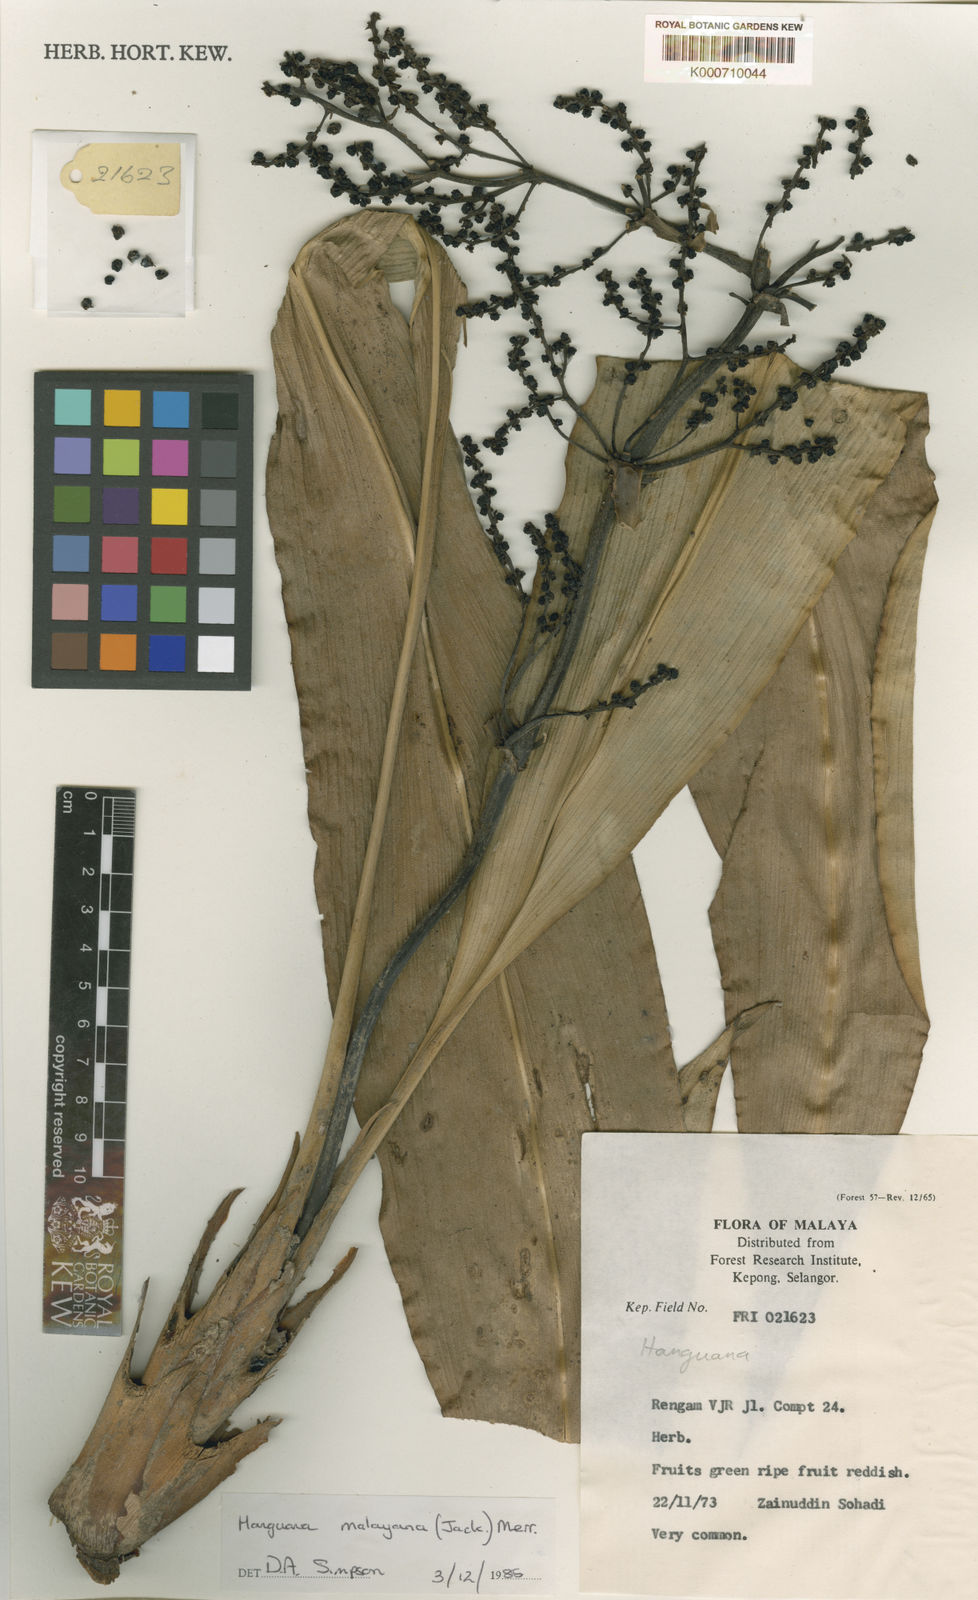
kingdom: Plantae
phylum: Tracheophyta
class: Liliopsida
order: Commelinales
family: Hanguanaceae
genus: Hanguana
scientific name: Hanguana malayana
